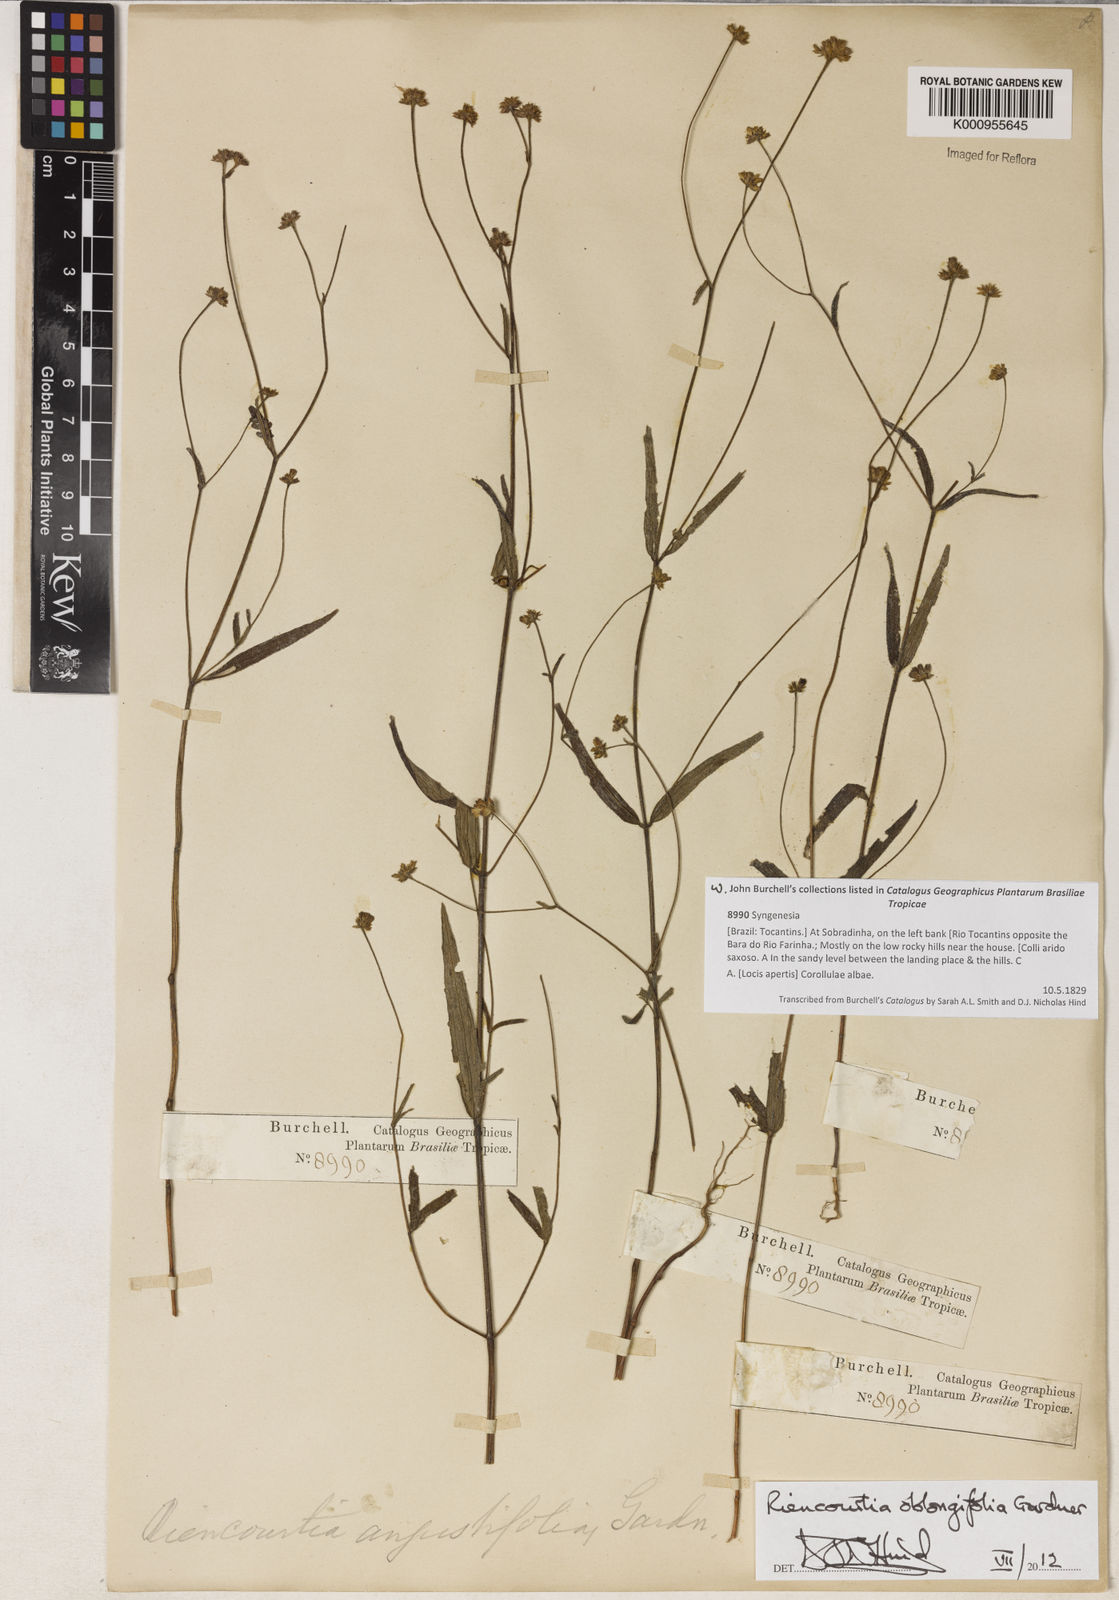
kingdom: Plantae
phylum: Tracheophyta
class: Magnoliopsida
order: Asterales
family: Asteraceae
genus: Riencourtia
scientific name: Riencourtia oblongifolia
